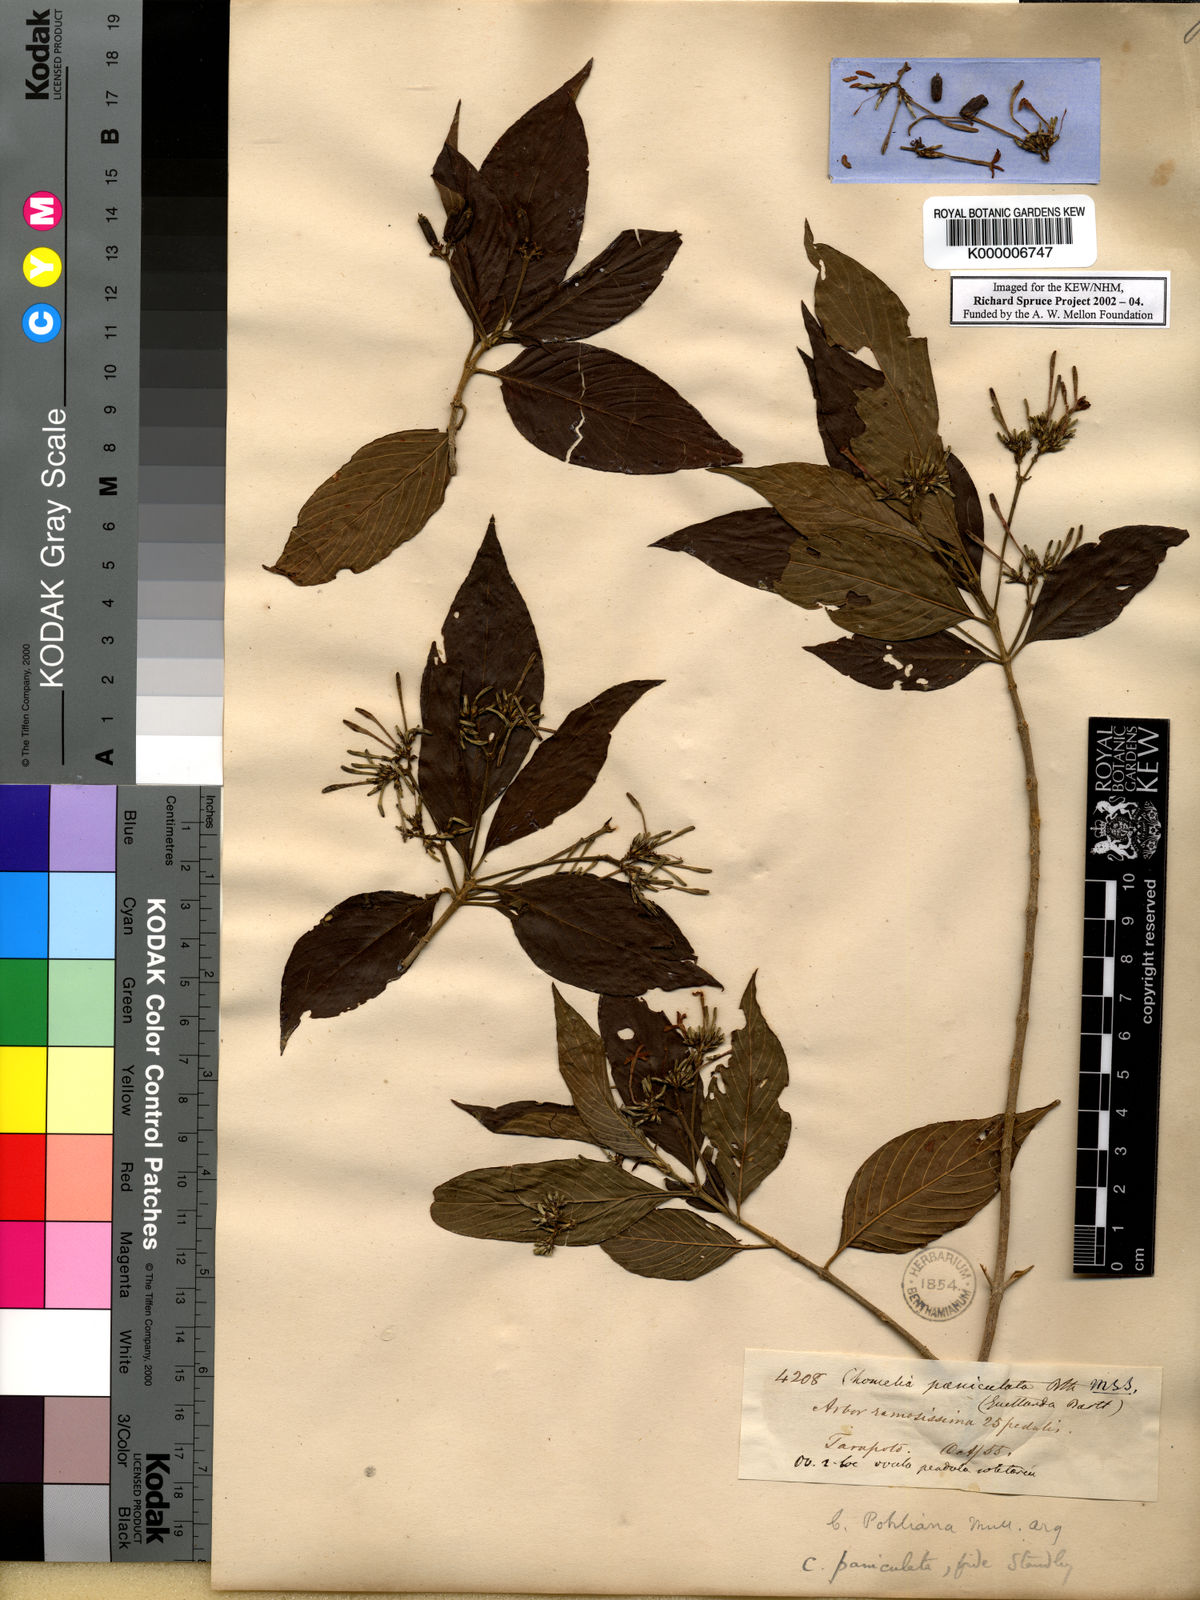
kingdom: Plantae
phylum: Tracheophyta
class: Magnoliopsida
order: Gentianales
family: Rubiaceae
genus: Chomelia
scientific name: Chomelia paniculata
